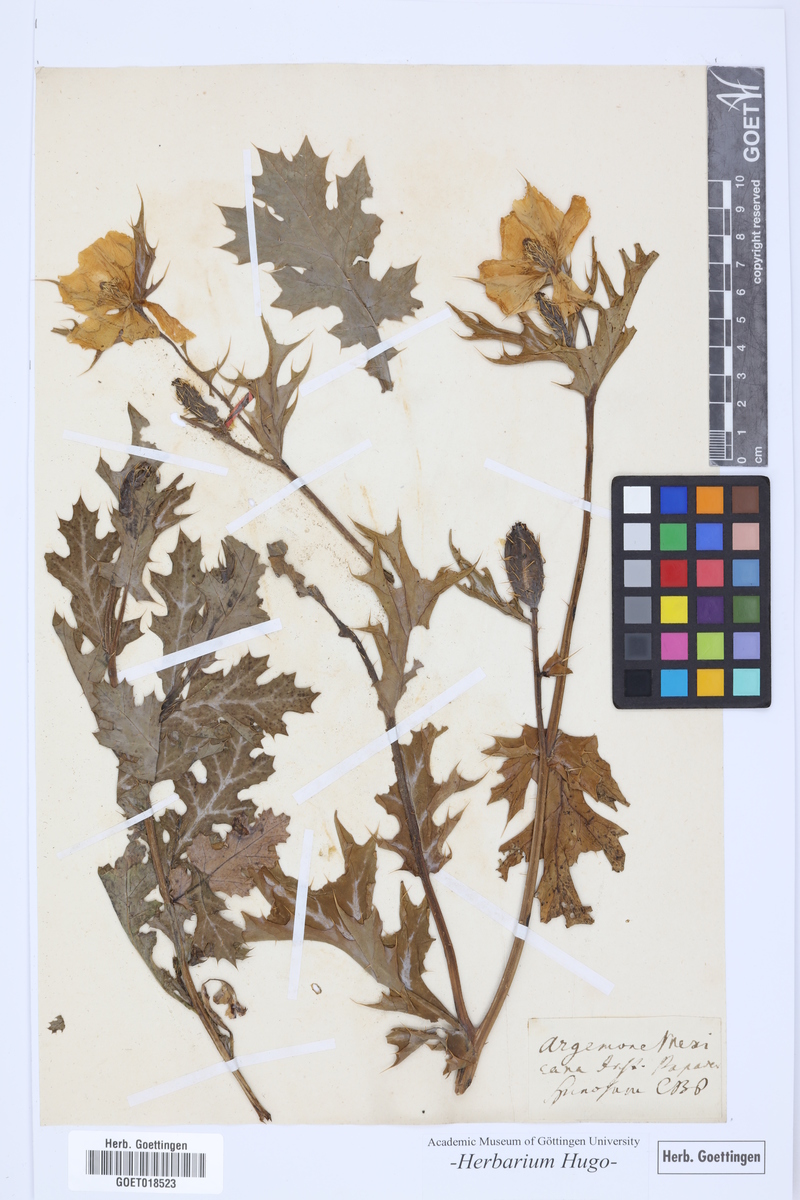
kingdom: Plantae
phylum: Tracheophyta
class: Magnoliopsida
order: Ranunculales
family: Papaveraceae
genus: Argemone
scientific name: Argemone mexicana
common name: Mexican poppy
